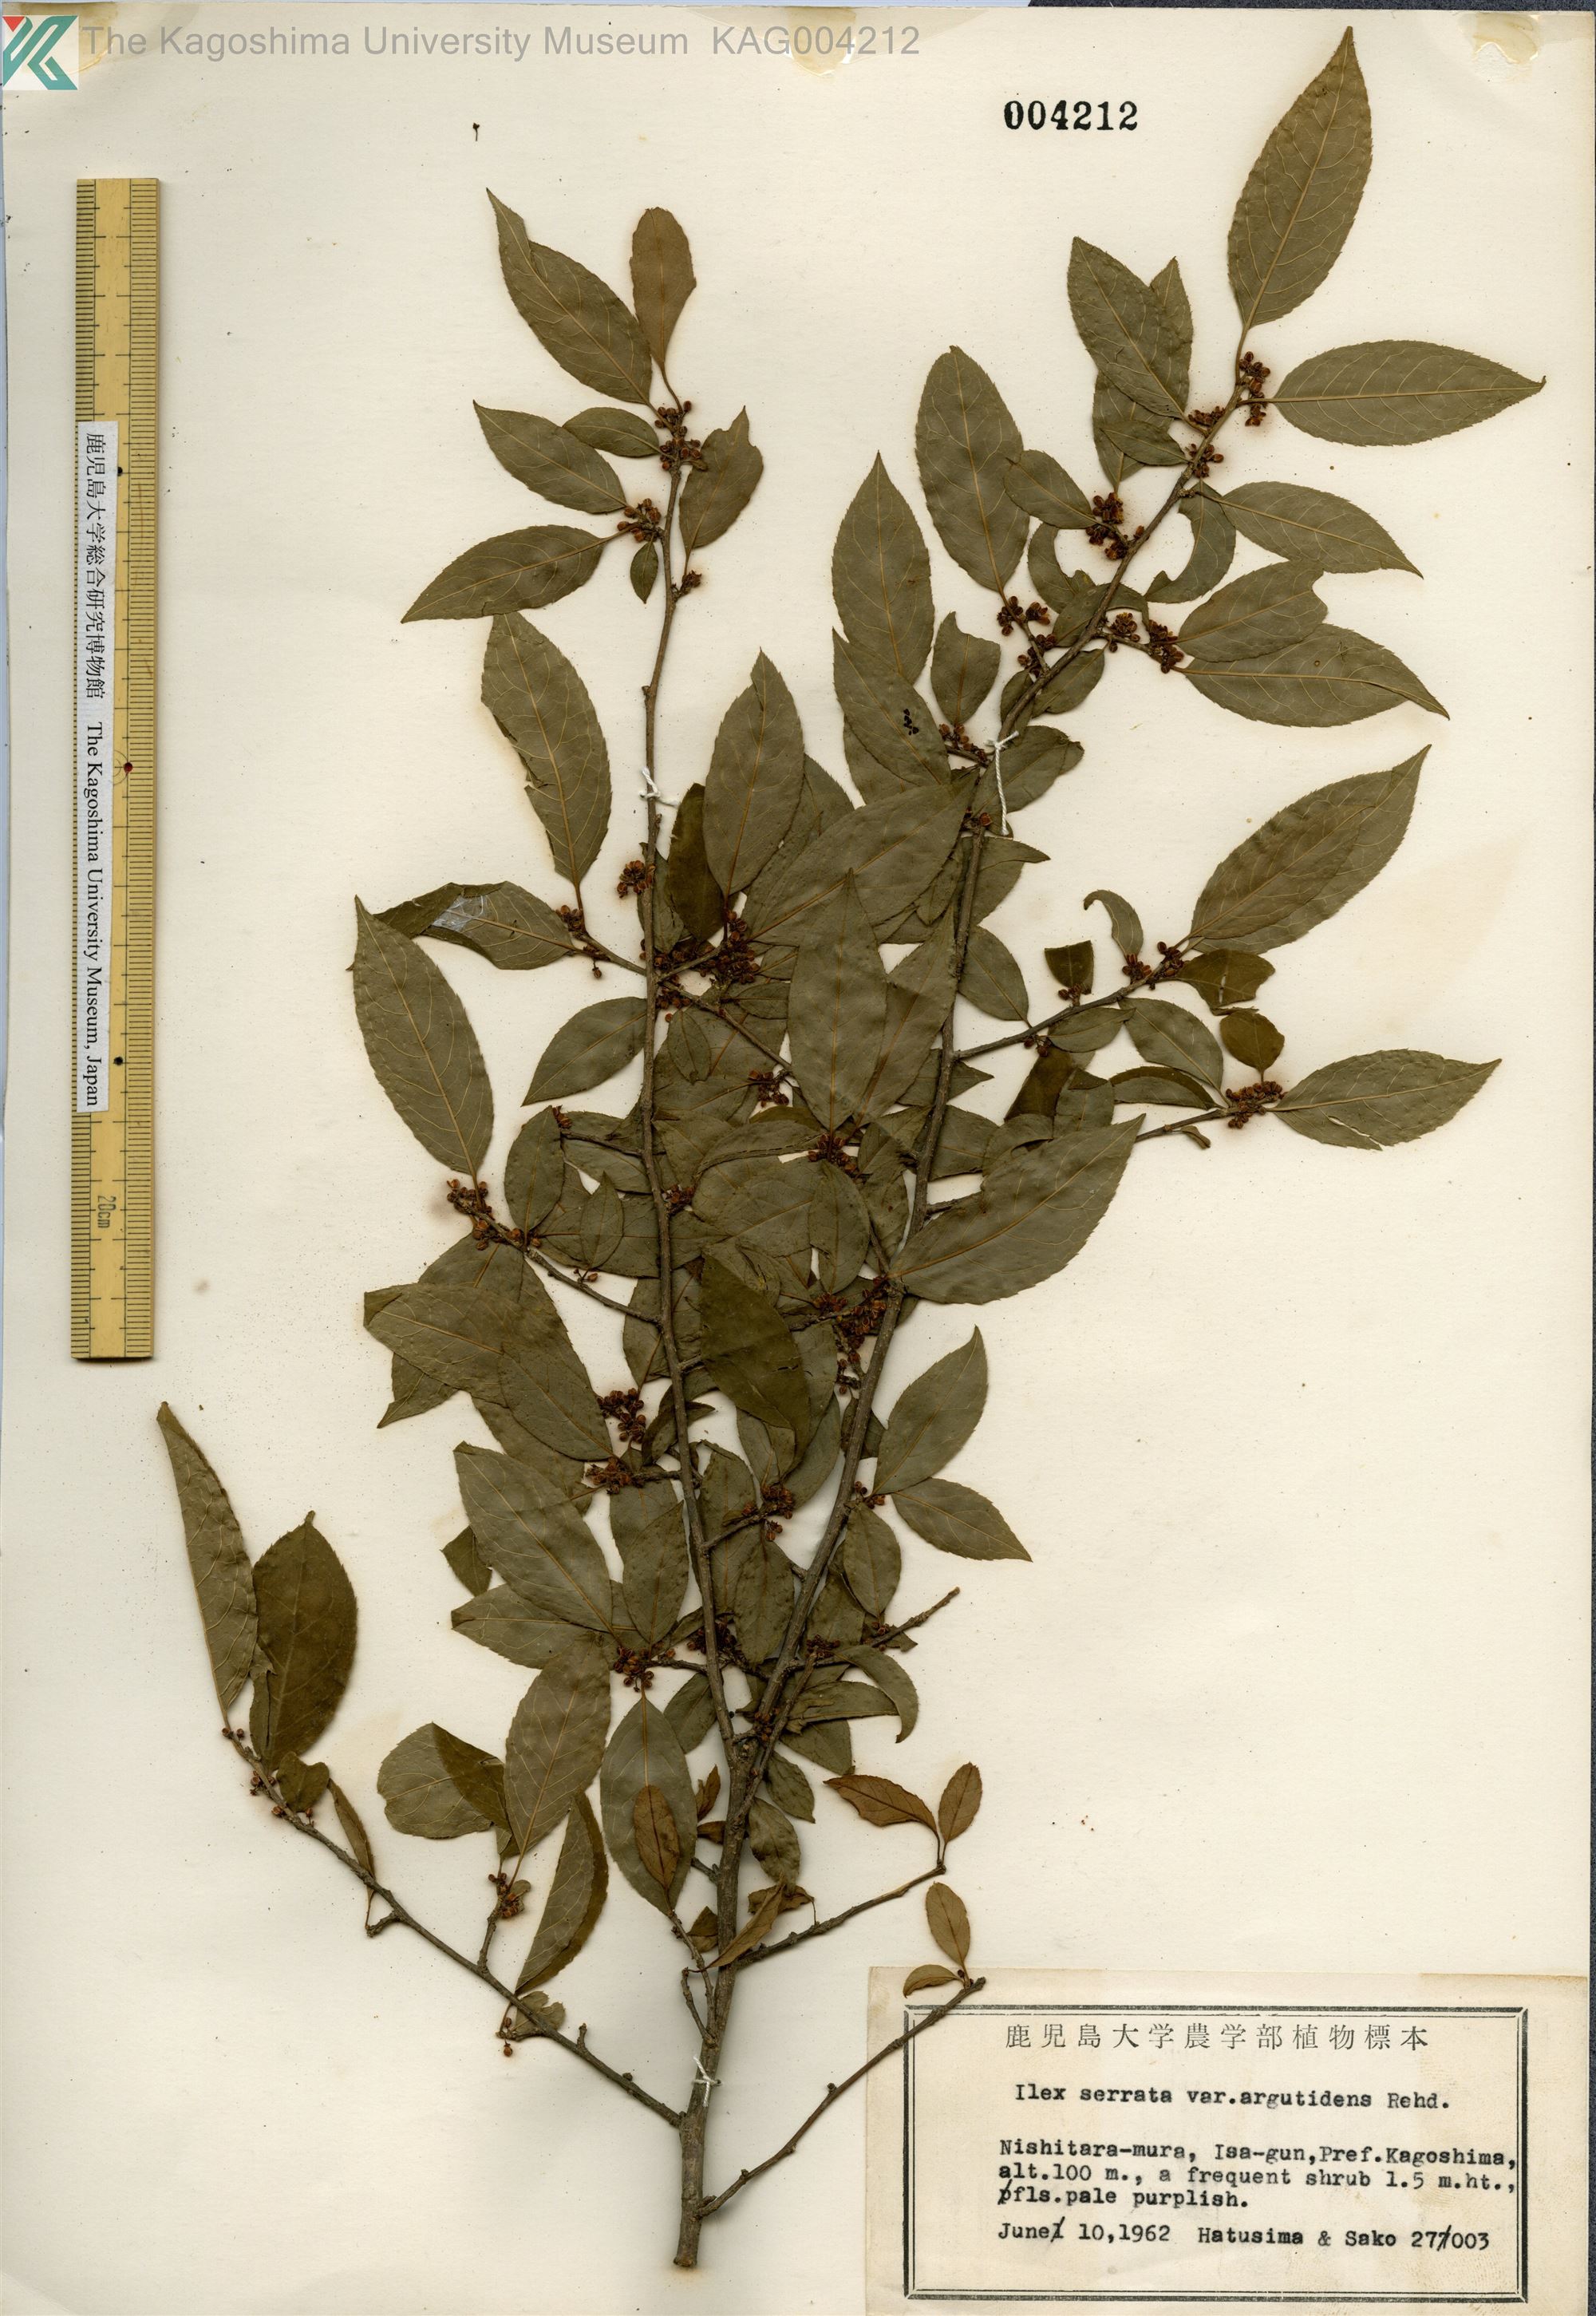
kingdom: Plantae
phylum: Tracheophyta
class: Magnoliopsida
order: Aquifoliales
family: Aquifoliaceae
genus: Ilex
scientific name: Ilex serrata
